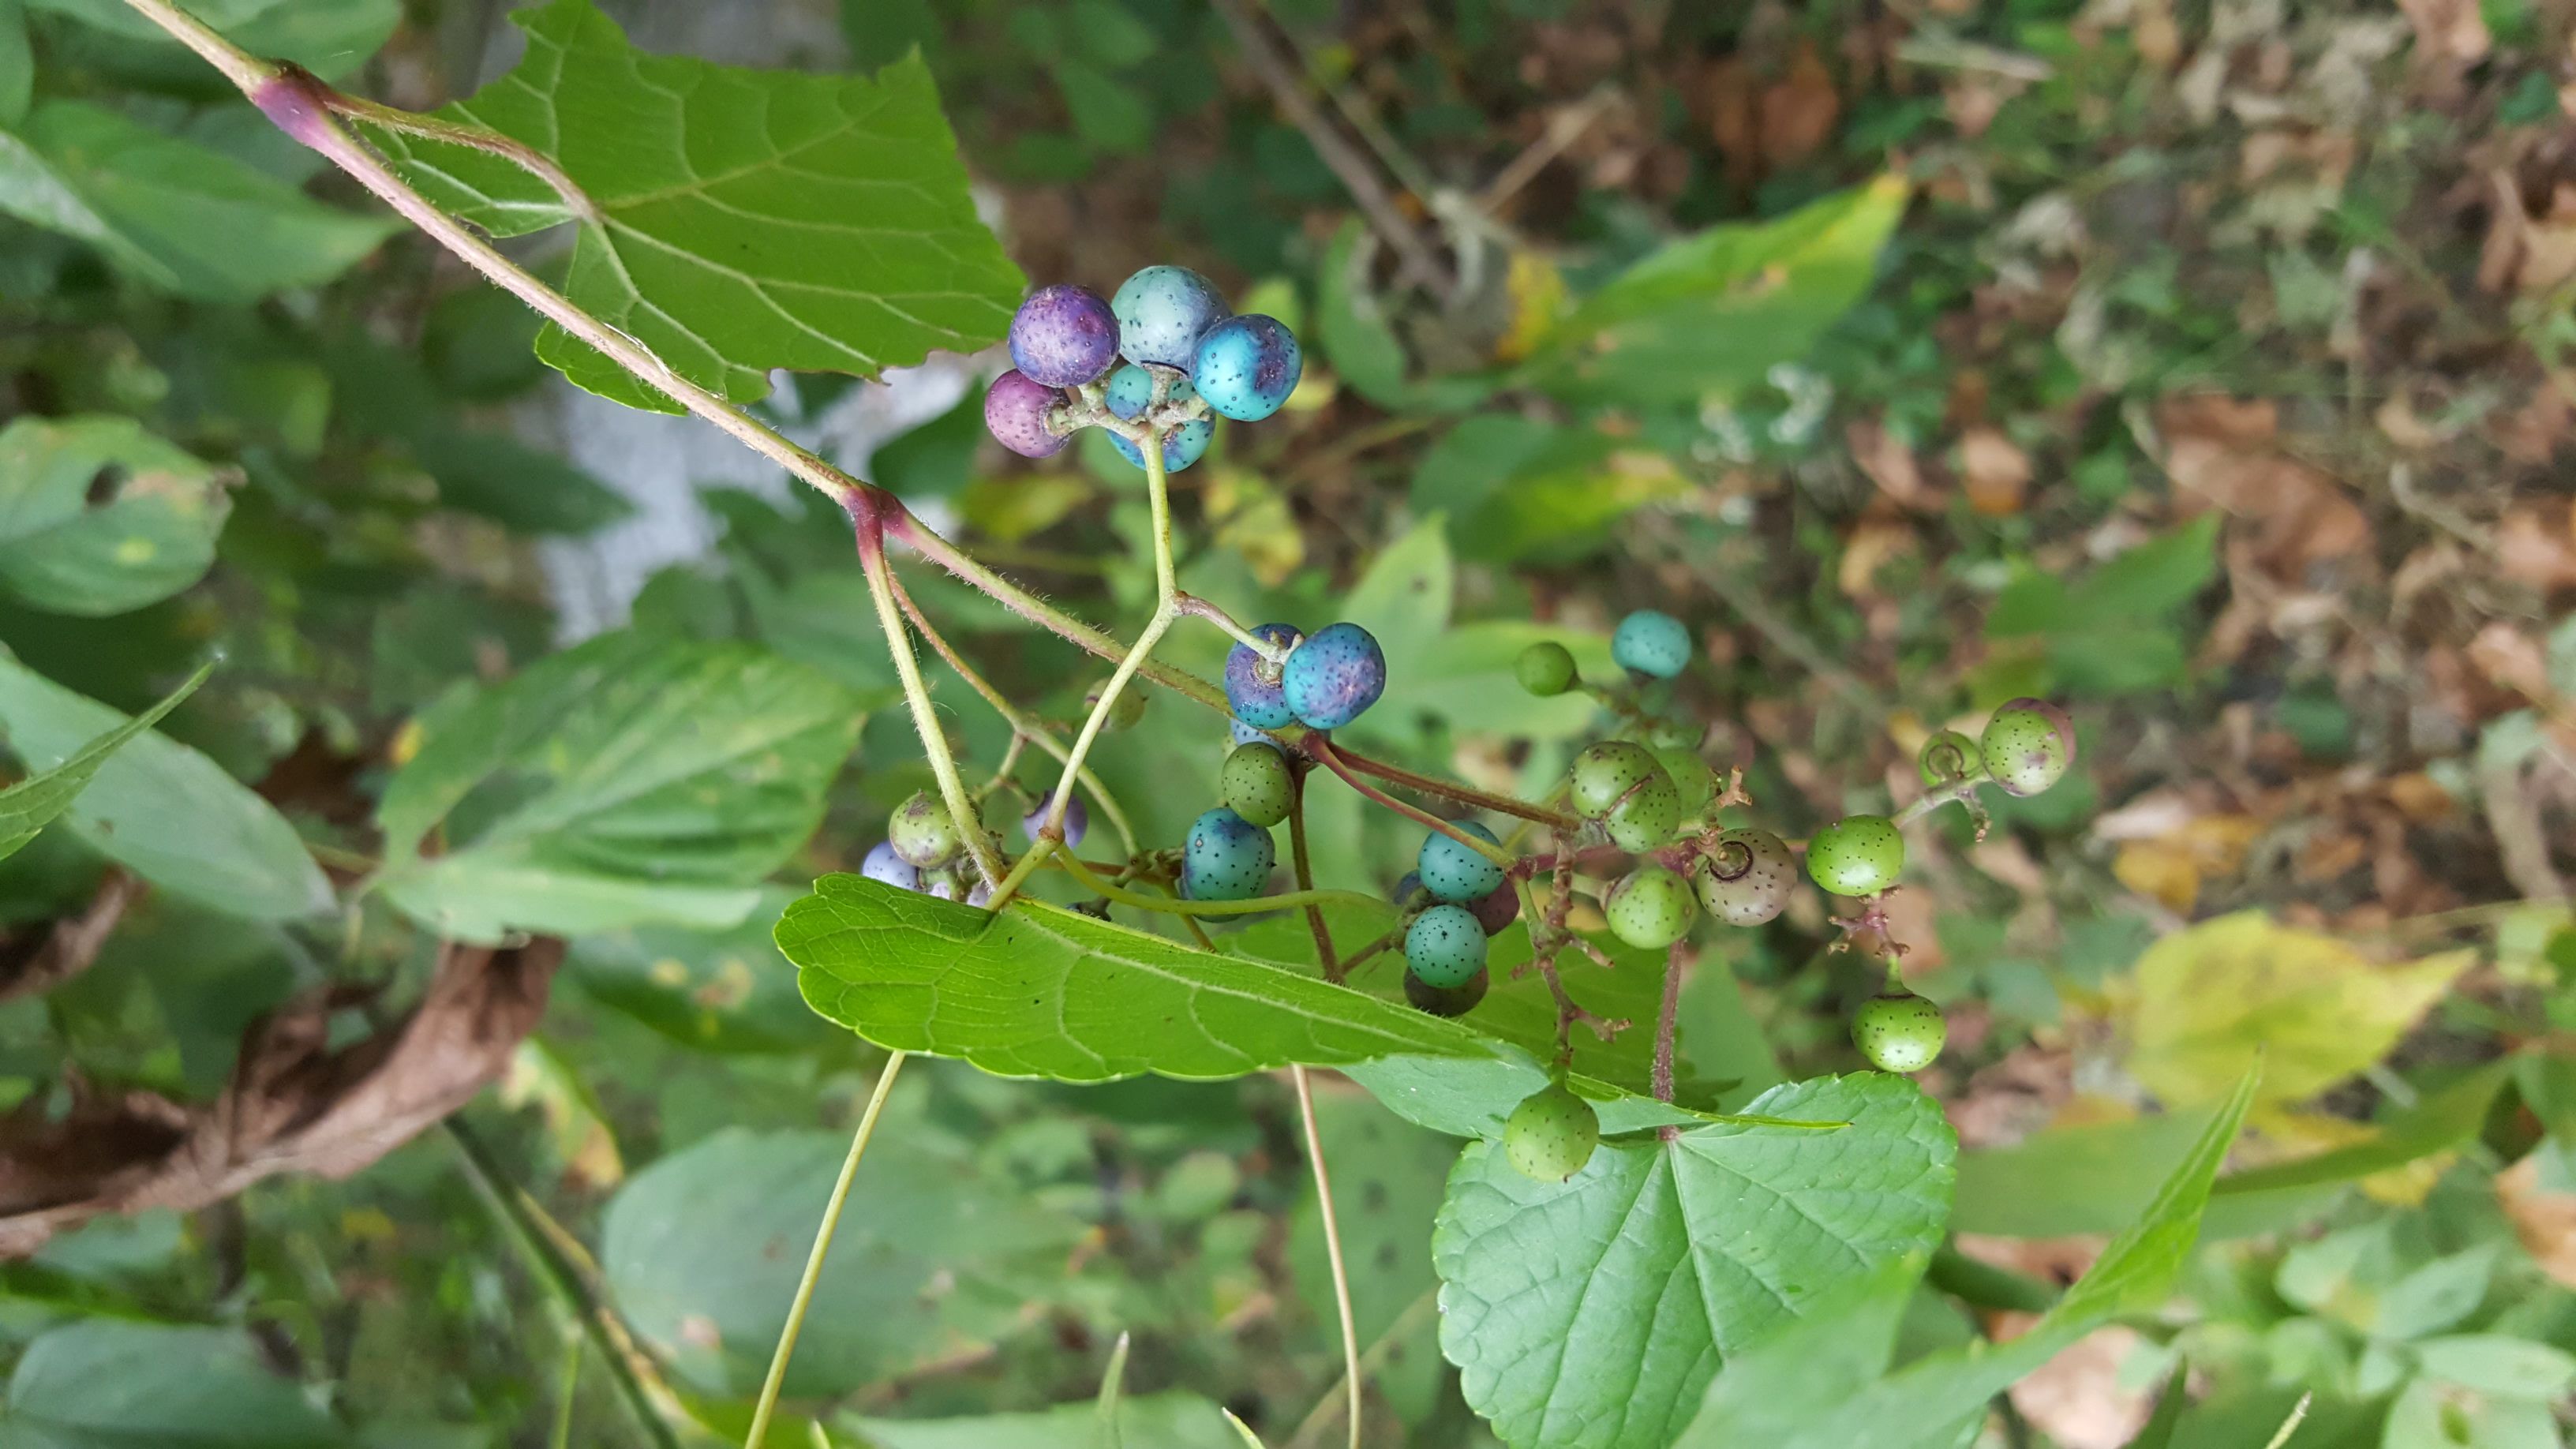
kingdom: Plantae
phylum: Tracheophyta
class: Magnoliopsida
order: Vitales
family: Vitaceae
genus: Ampelopsis
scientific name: Ampelopsis glandulosa
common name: Porcelain-berry
